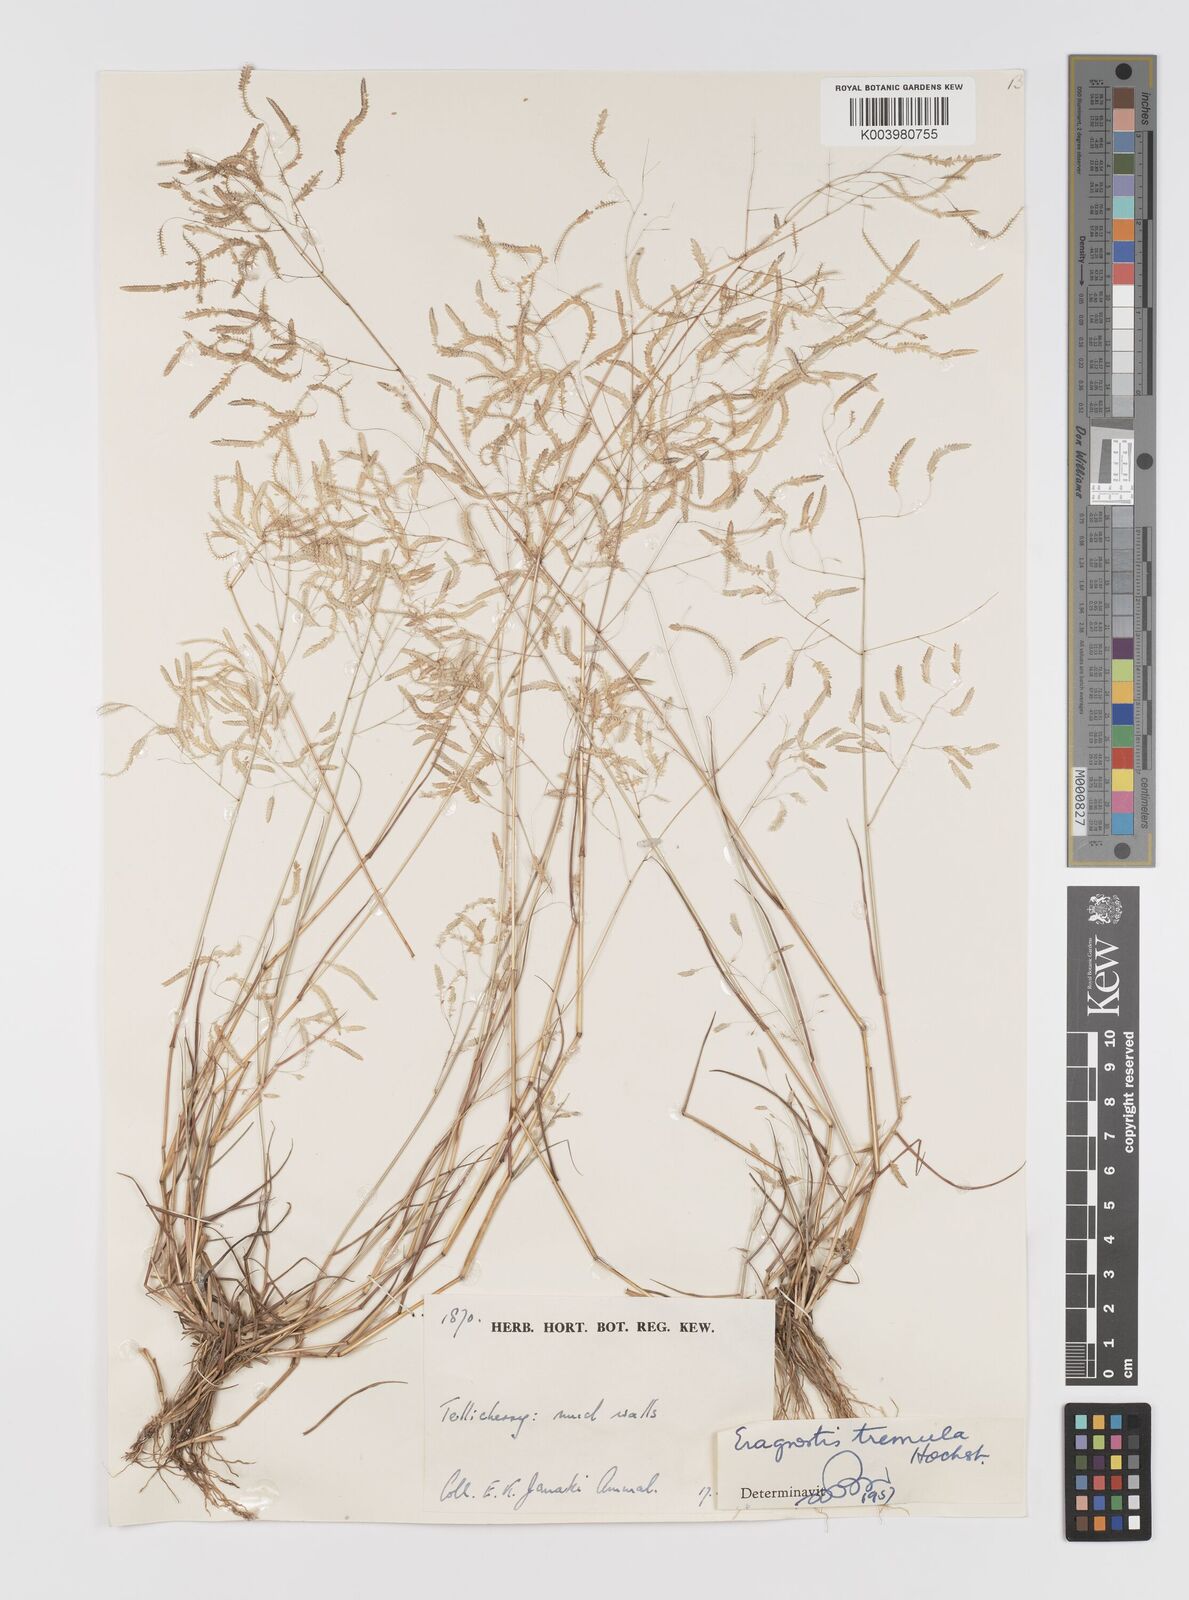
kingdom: Plantae
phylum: Tracheophyta
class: Liliopsida
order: Poales
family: Poaceae
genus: Eragrostis
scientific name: Eragrostis tremula
